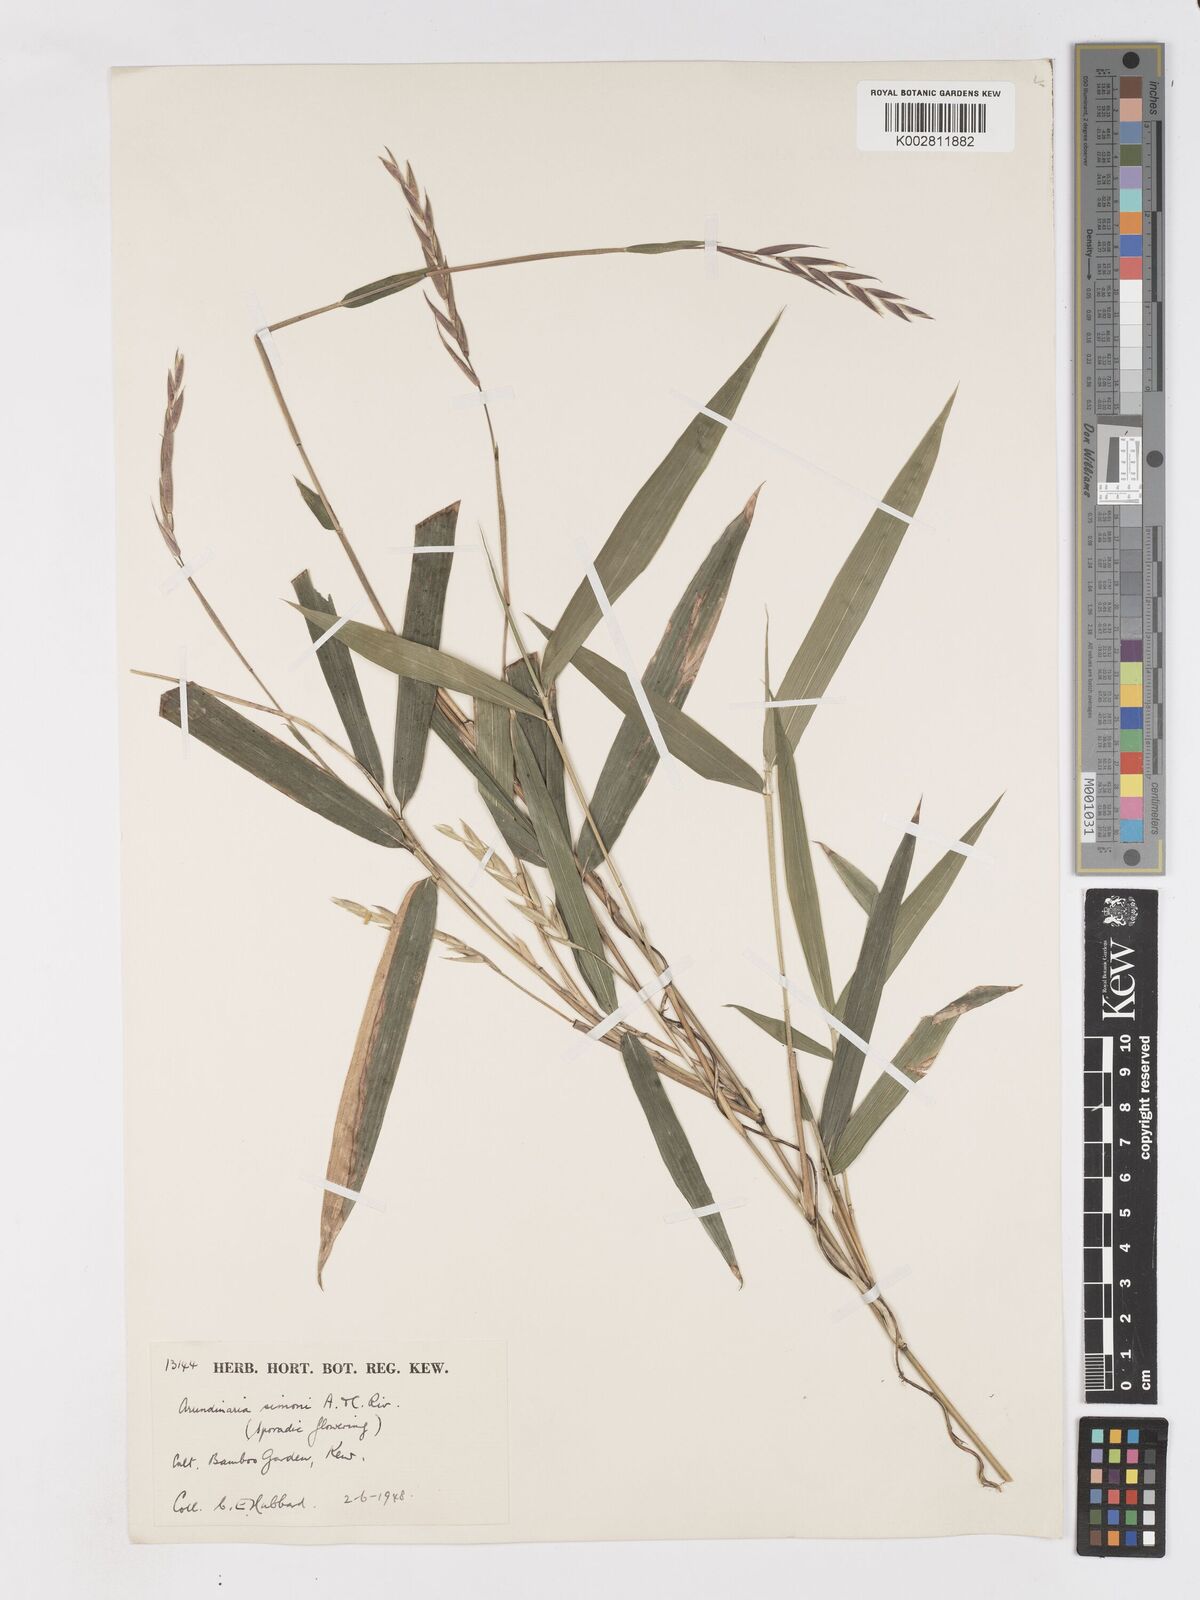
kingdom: Plantae
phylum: Tracheophyta
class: Liliopsida
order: Poales
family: Poaceae
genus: Pleioblastus
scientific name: Pleioblastus simonii
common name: Simon bamboo
